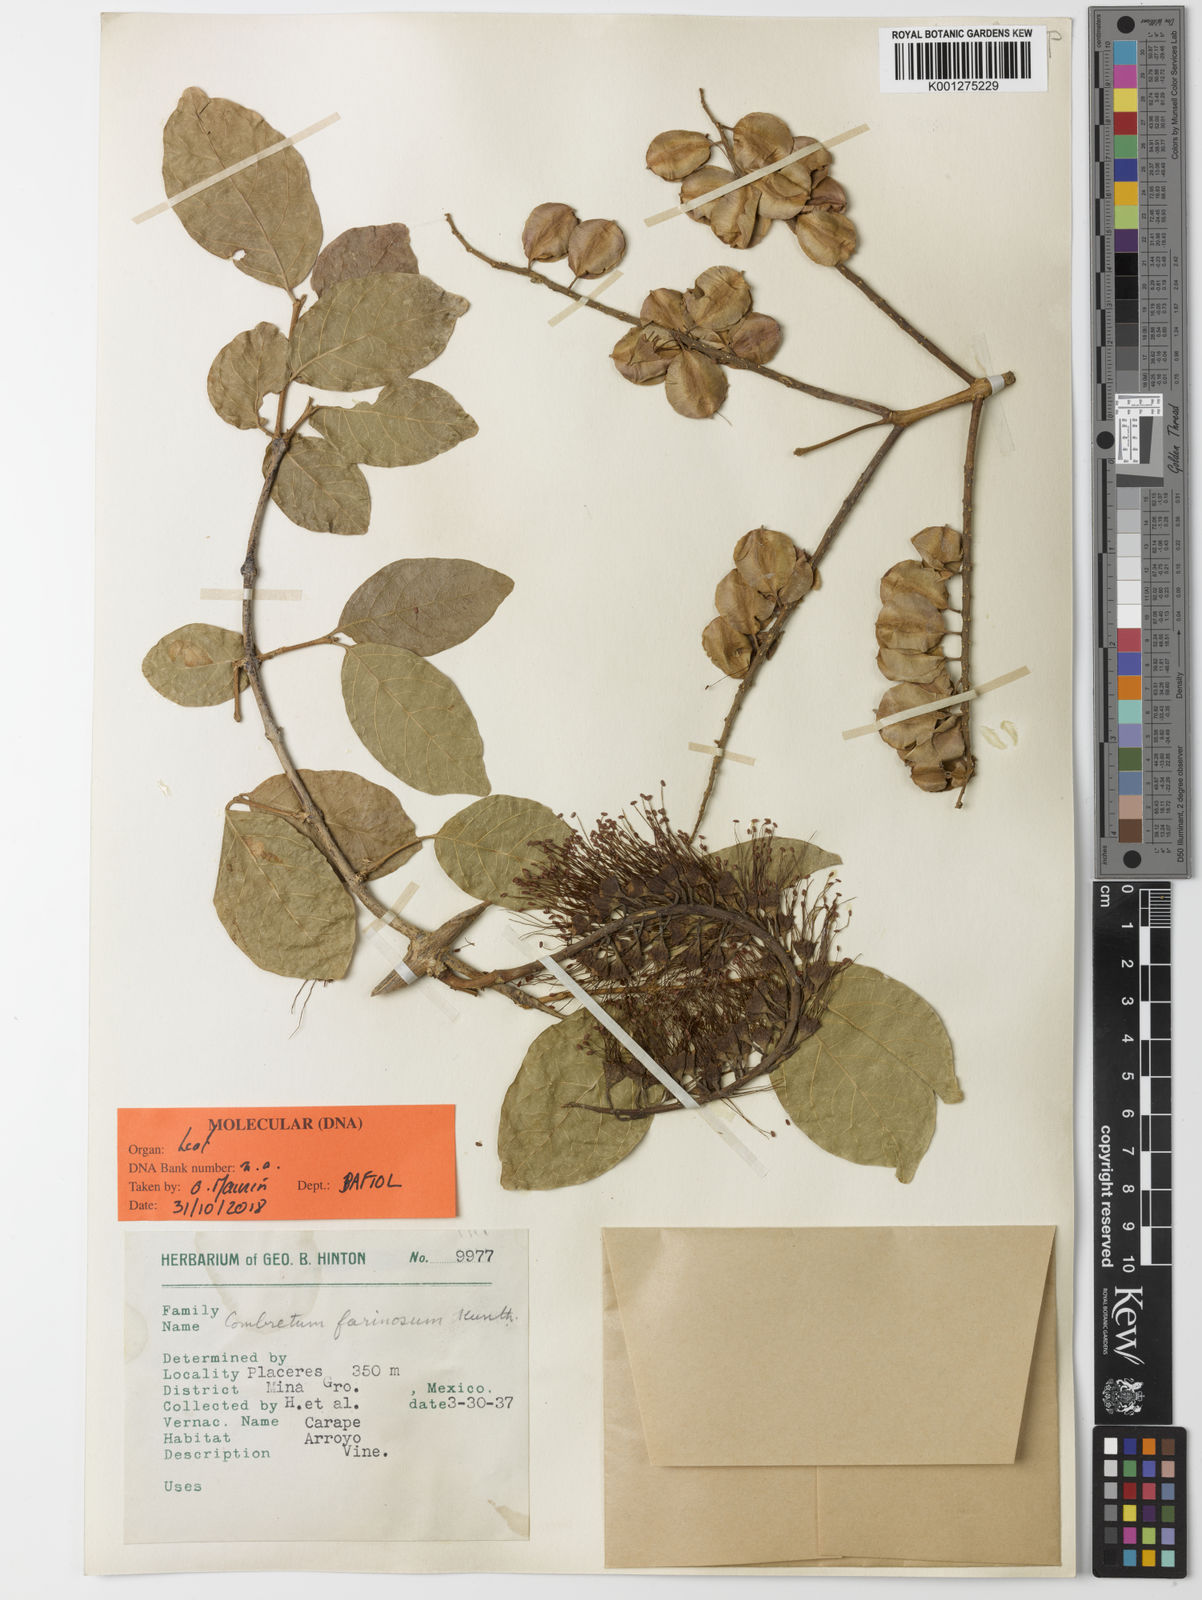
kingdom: Plantae
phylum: Tracheophyta
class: Magnoliopsida
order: Myrtales
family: Combretaceae
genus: Combretum
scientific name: Combretum farinosum
